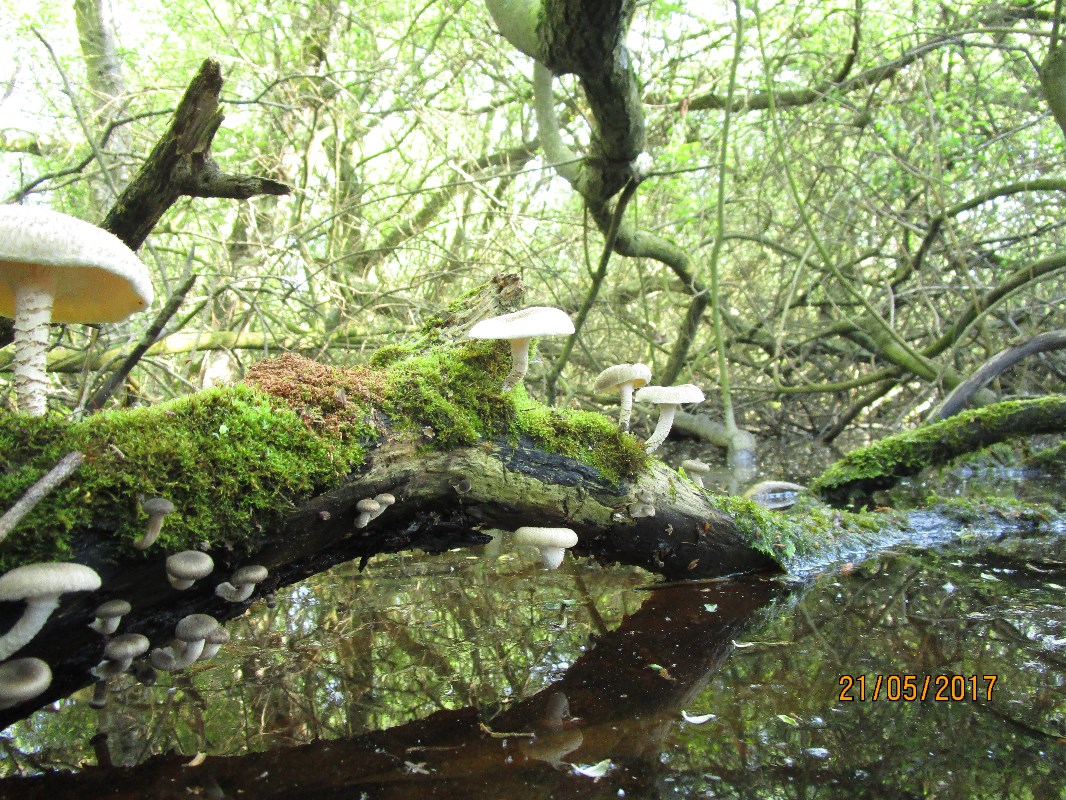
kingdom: Fungi
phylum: Basidiomycota
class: Agaricomycetes
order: Polyporales
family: Polyporaceae
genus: Lentinus
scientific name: Lentinus tigrinus
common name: tigerhat
